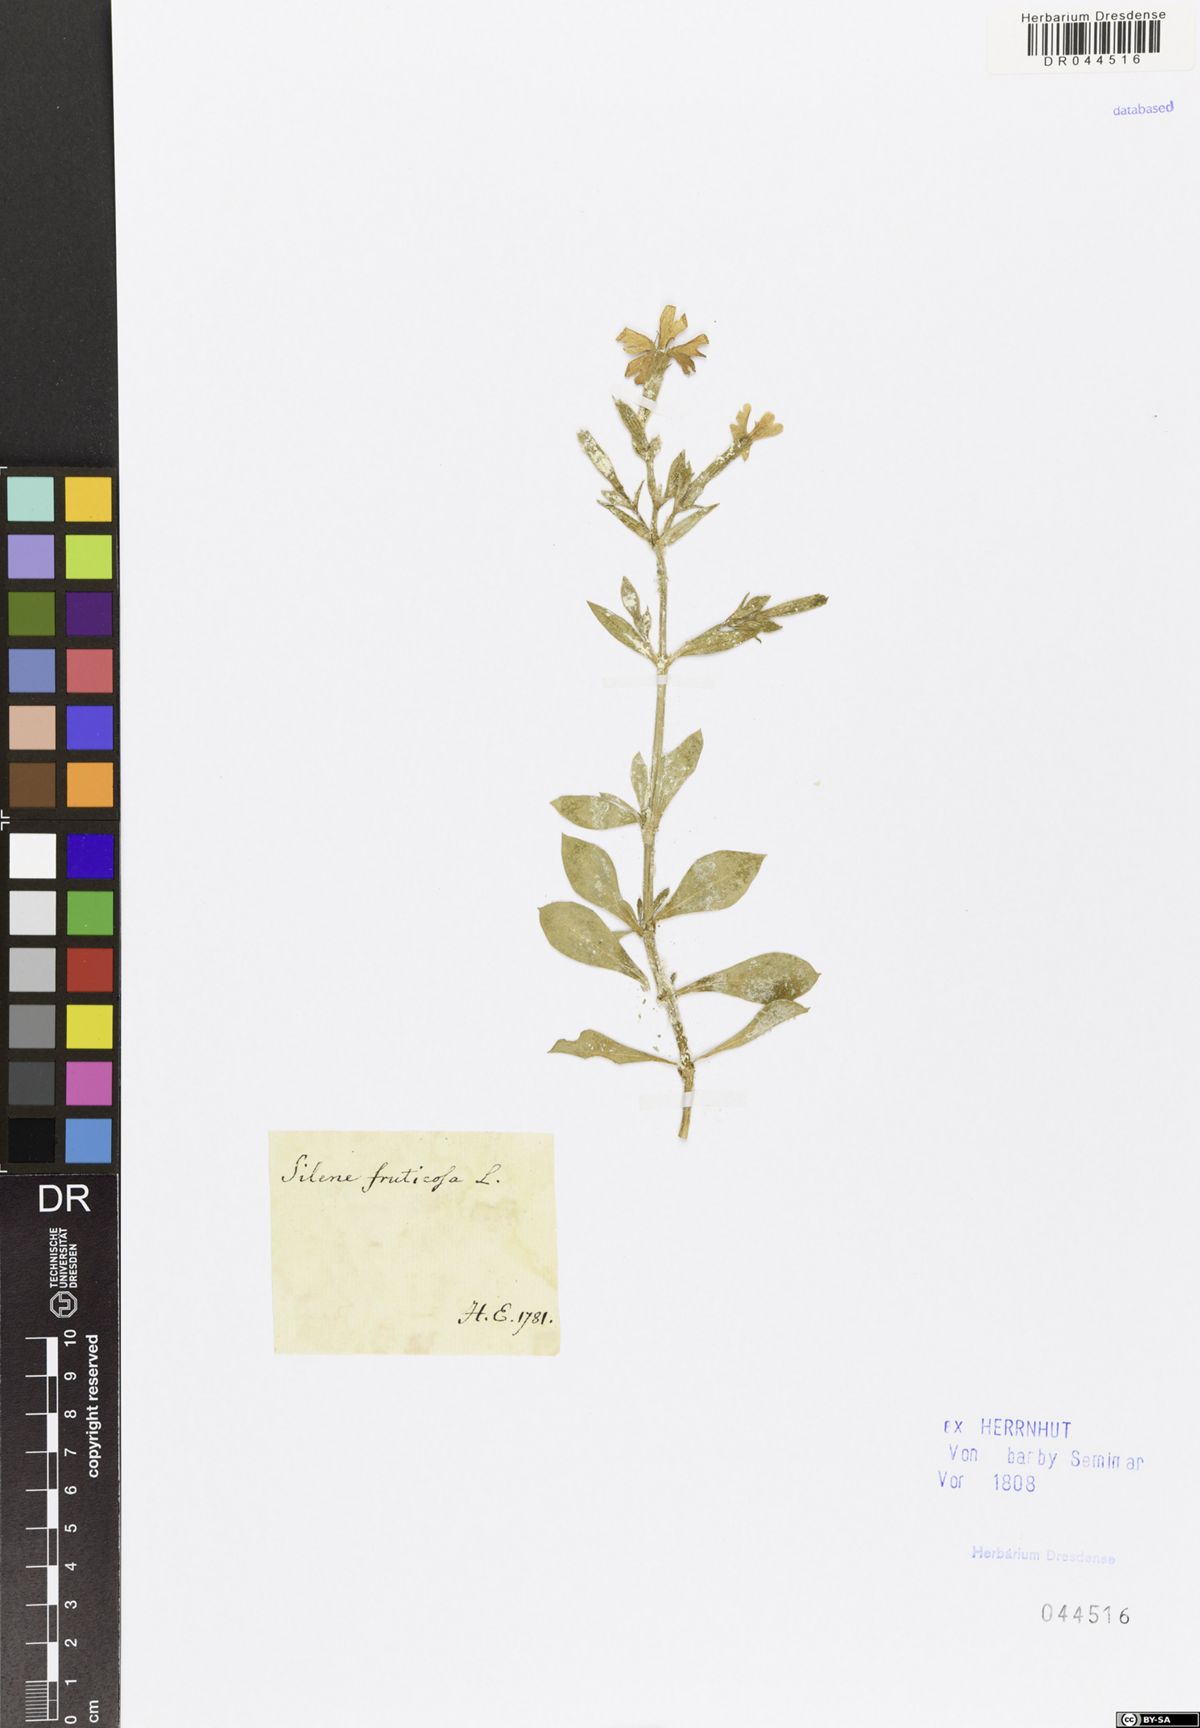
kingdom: Plantae
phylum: Tracheophyta
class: Magnoliopsida
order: Caryophyllales
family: Caryophyllaceae
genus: Silene
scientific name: Silene fruticosa
